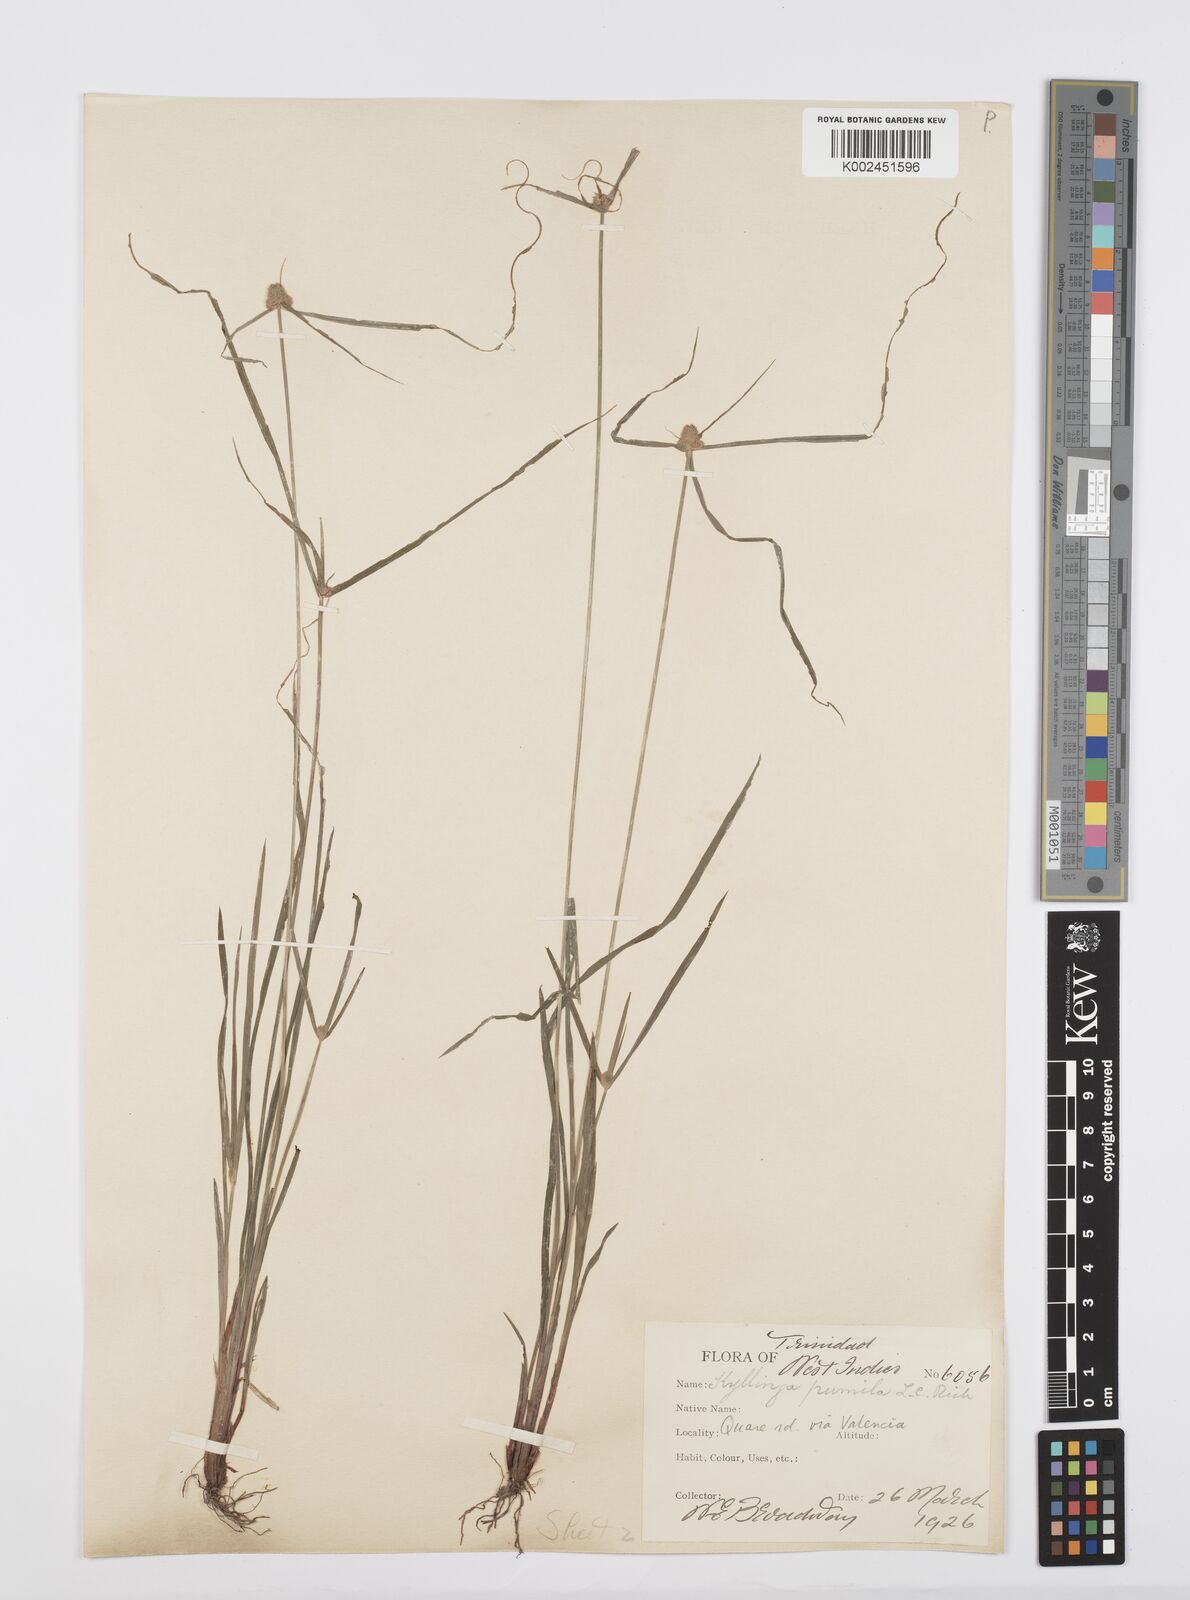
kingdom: Plantae
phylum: Tracheophyta
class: Liliopsida
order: Poales
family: Cyperaceae
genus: Cyperus
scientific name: Cyperus
